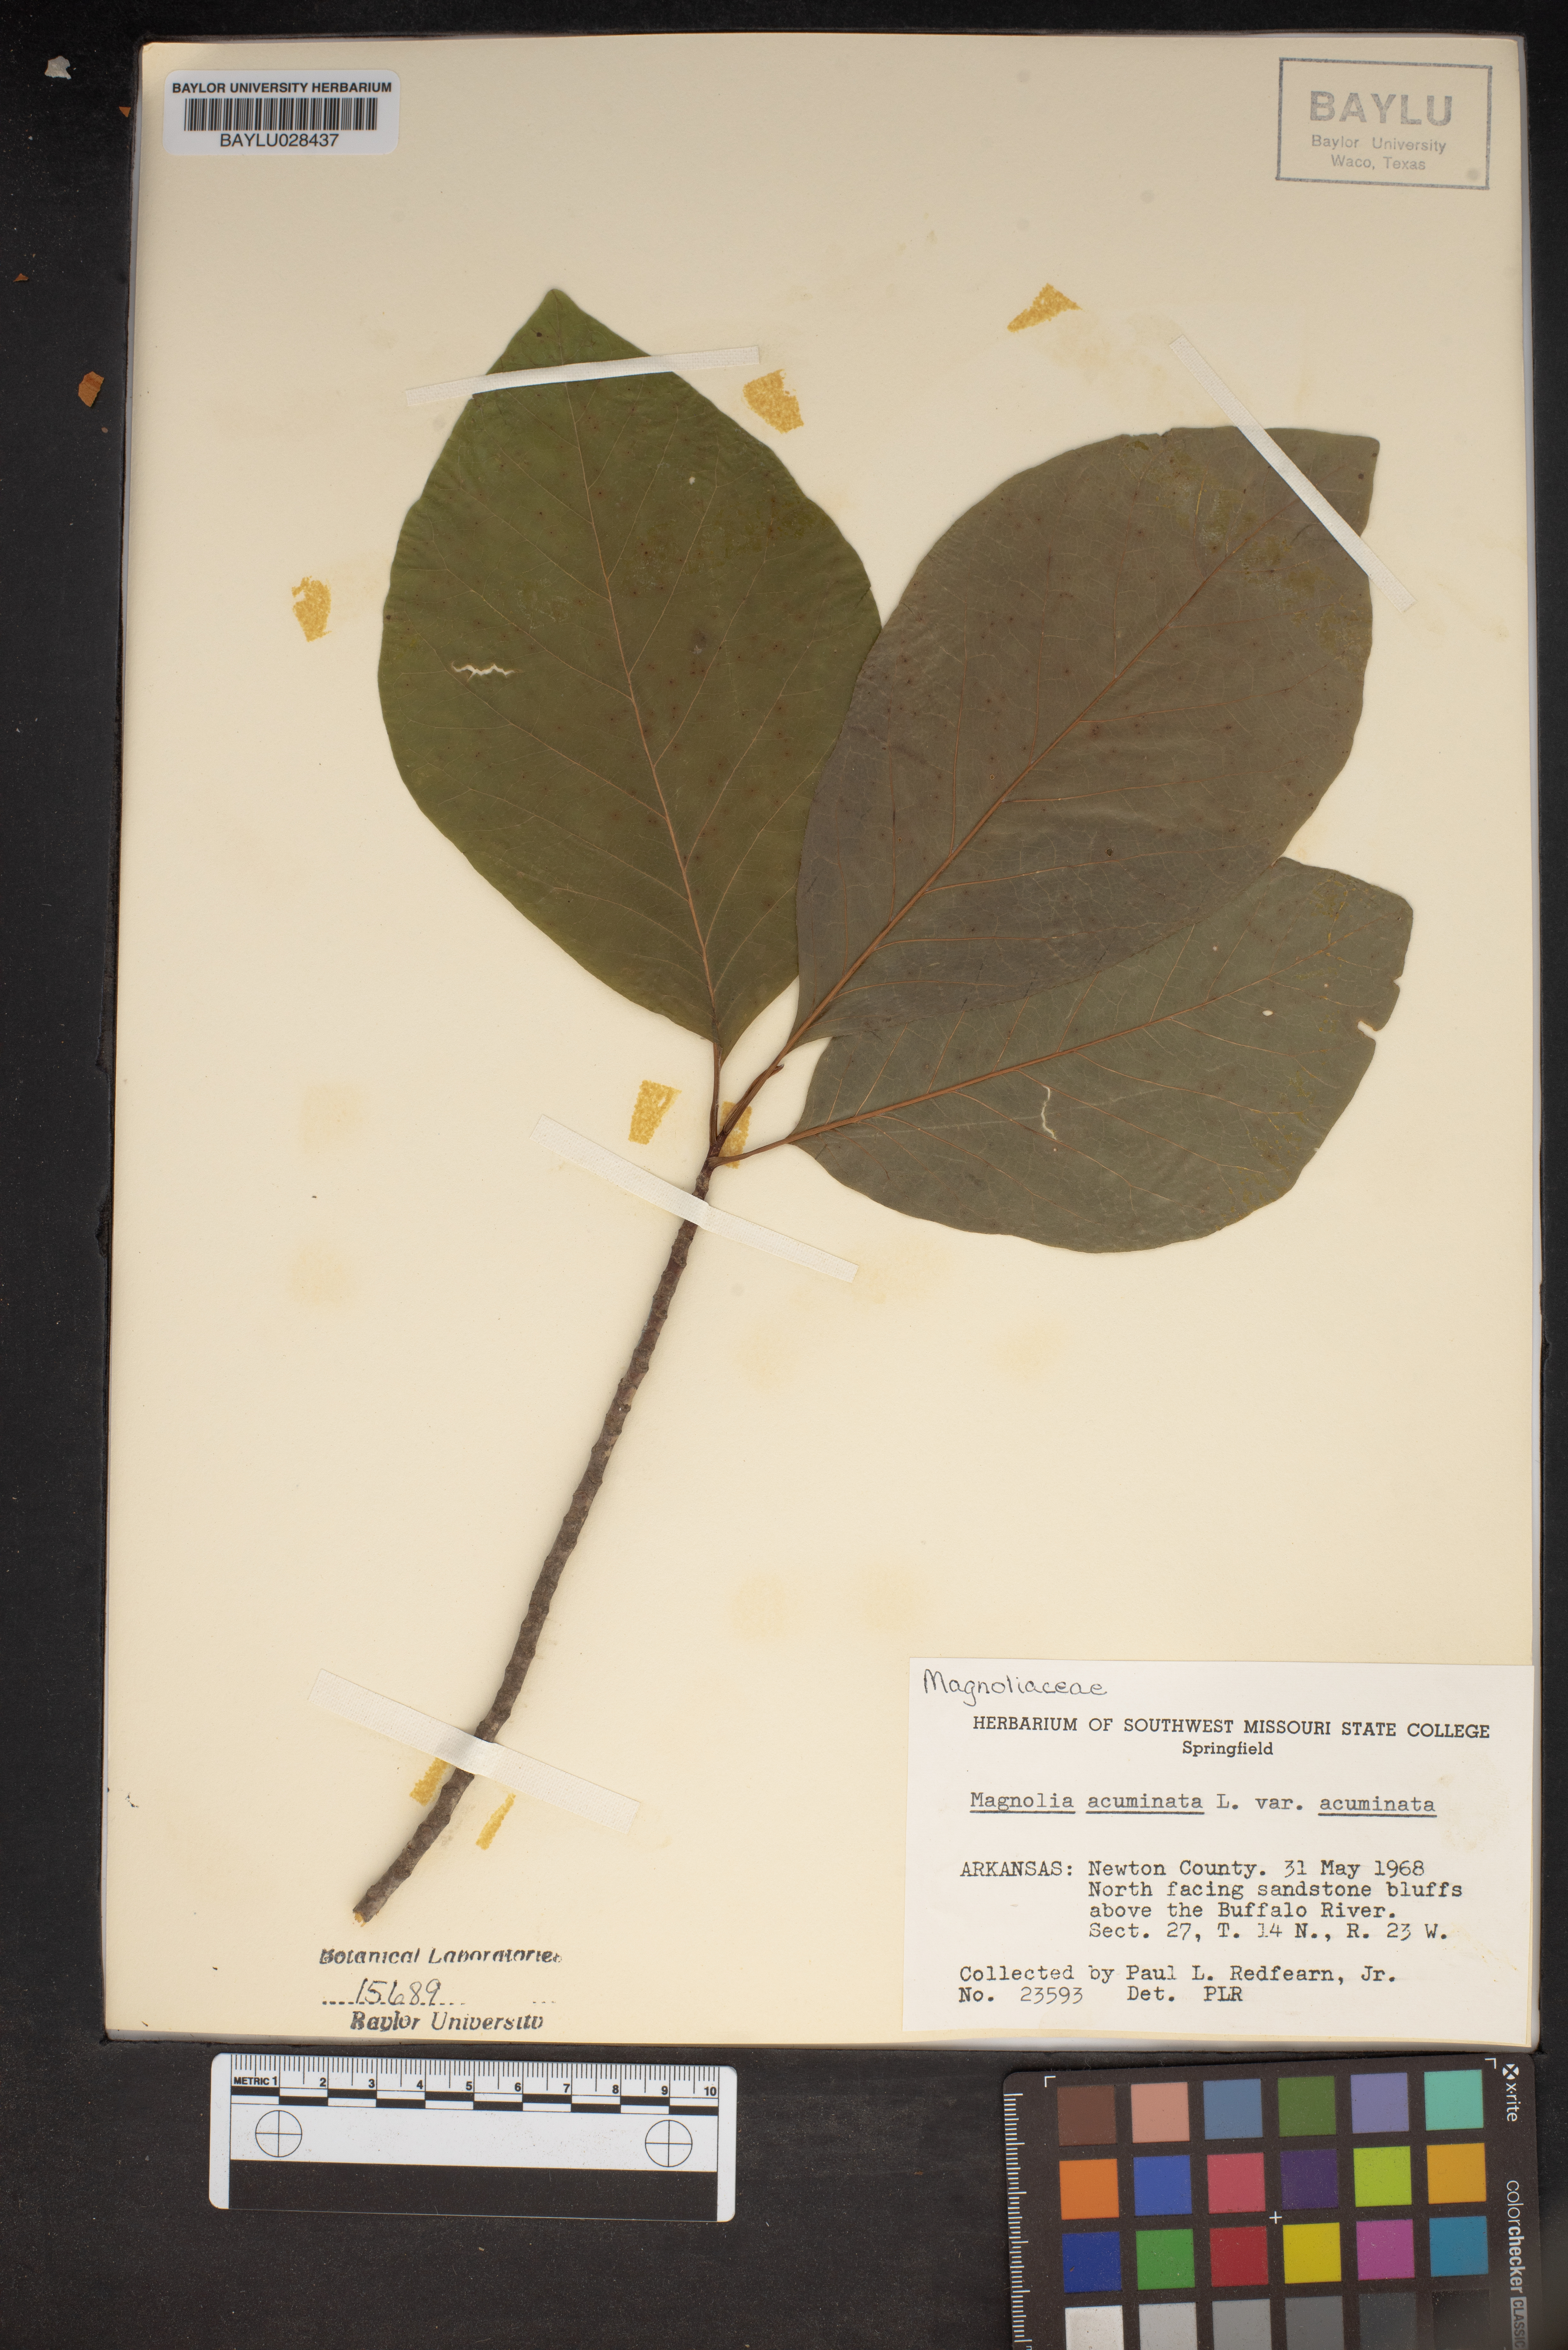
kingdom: Plantae
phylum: Tracheophyta
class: Magnoliopsida
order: Magnoliales
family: Magnoliaceae
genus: Magnolia
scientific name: Magnolia acuminata
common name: Cucumber magnolia
